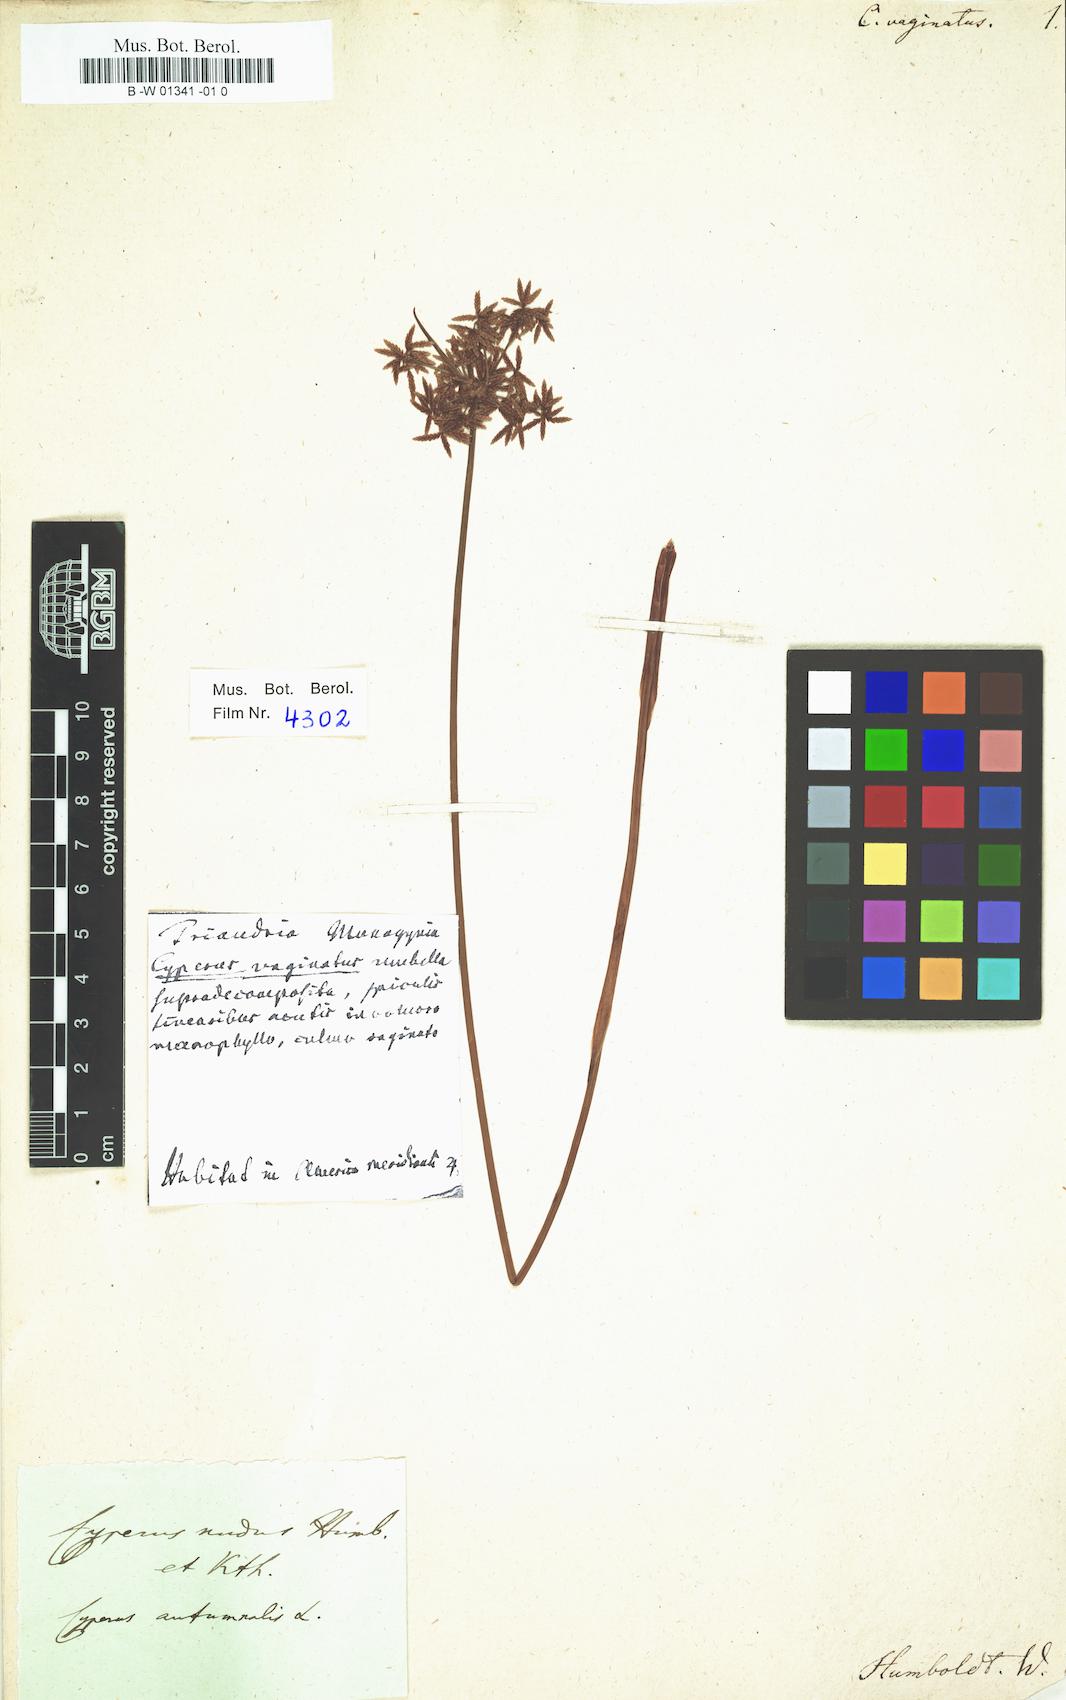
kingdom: Plantae
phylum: Tracheophyta
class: Liliopsida
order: Poales
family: Cyperaceae
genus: Cyperus
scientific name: Cyperus haspan
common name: Haspan flatsedge
